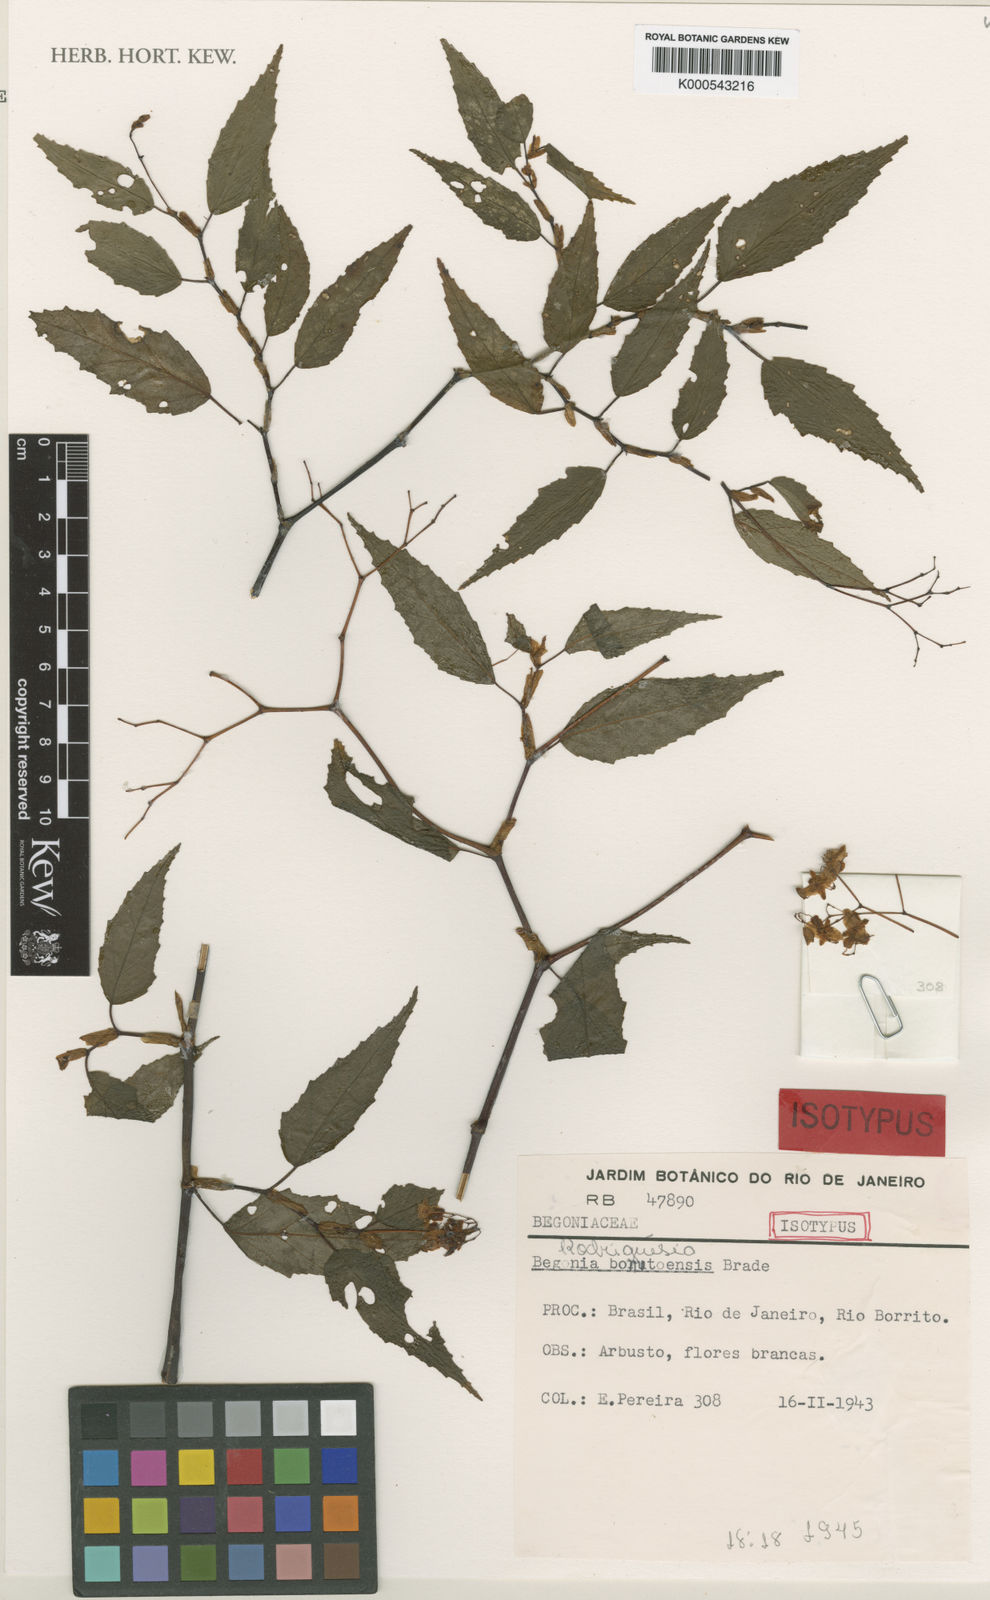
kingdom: Plantae
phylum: Tracheophyta
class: Magnoliopsida
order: Cucurbitales
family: Begoniaceae
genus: Begonia
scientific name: Begonia bonitoensis
